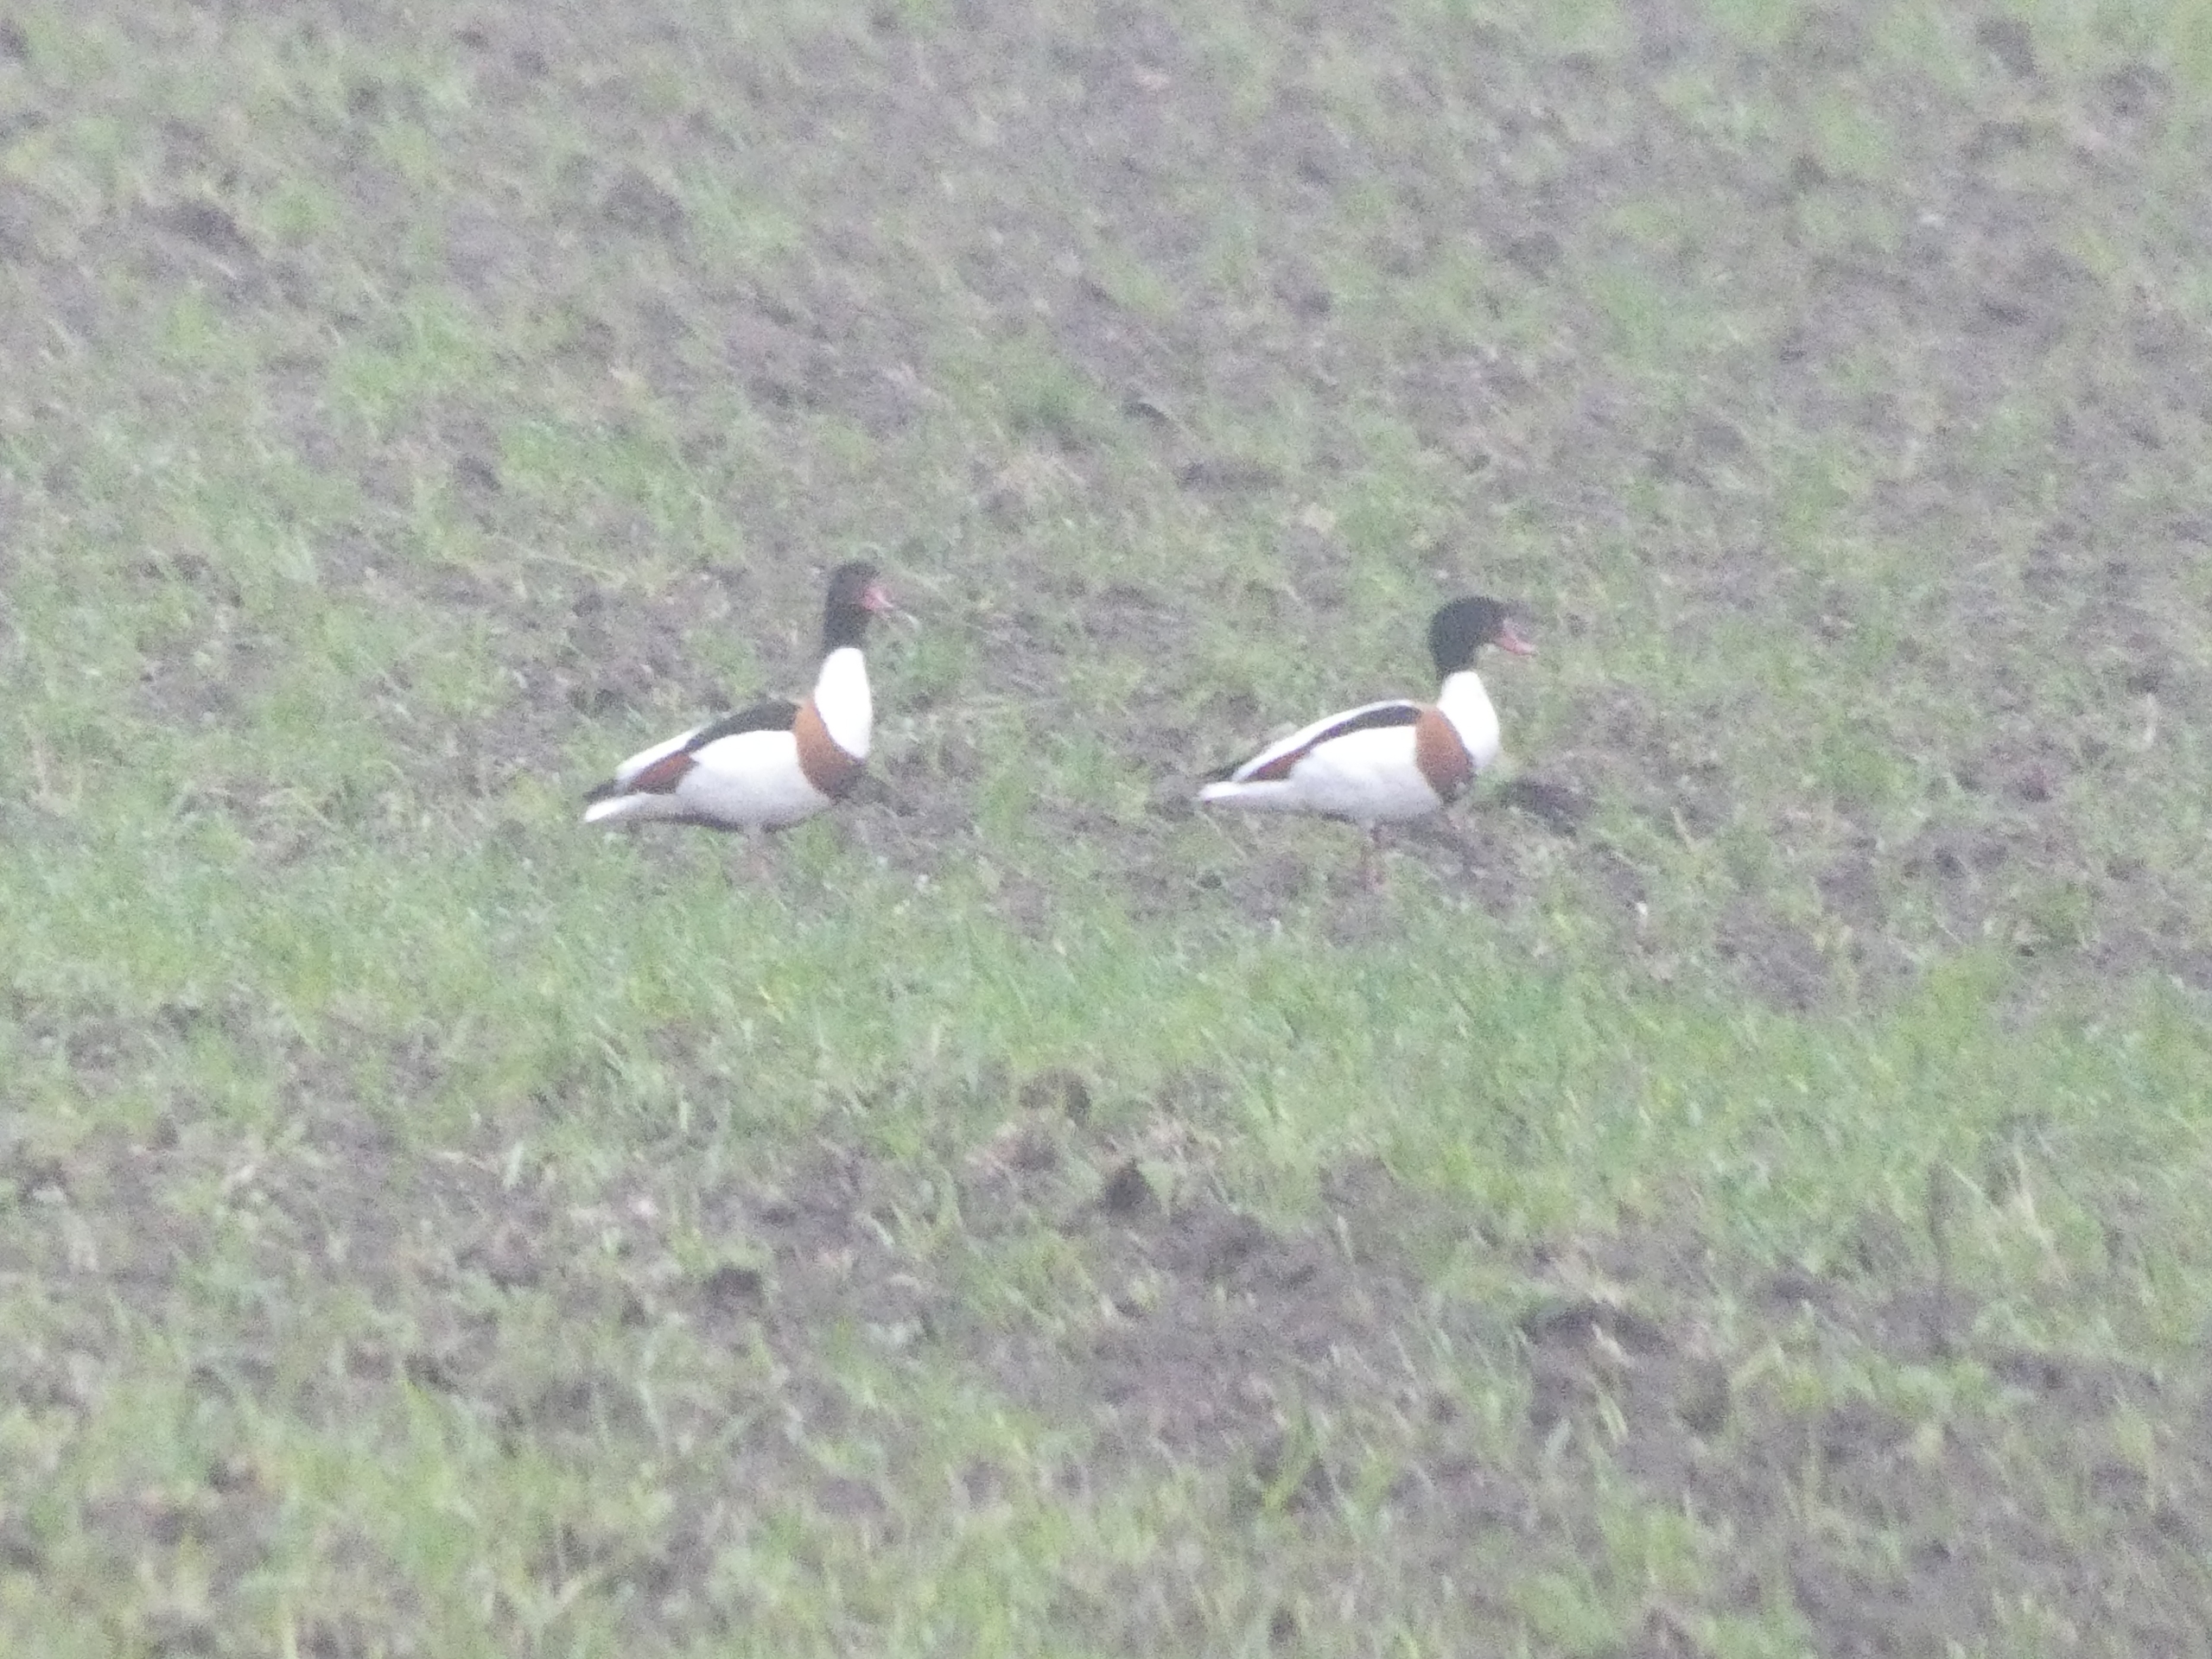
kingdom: Animalia
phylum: Chordata
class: Aves
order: Anseriformes
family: Anatidae
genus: Tadorna
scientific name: Tadorna tadorna
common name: Gravand
